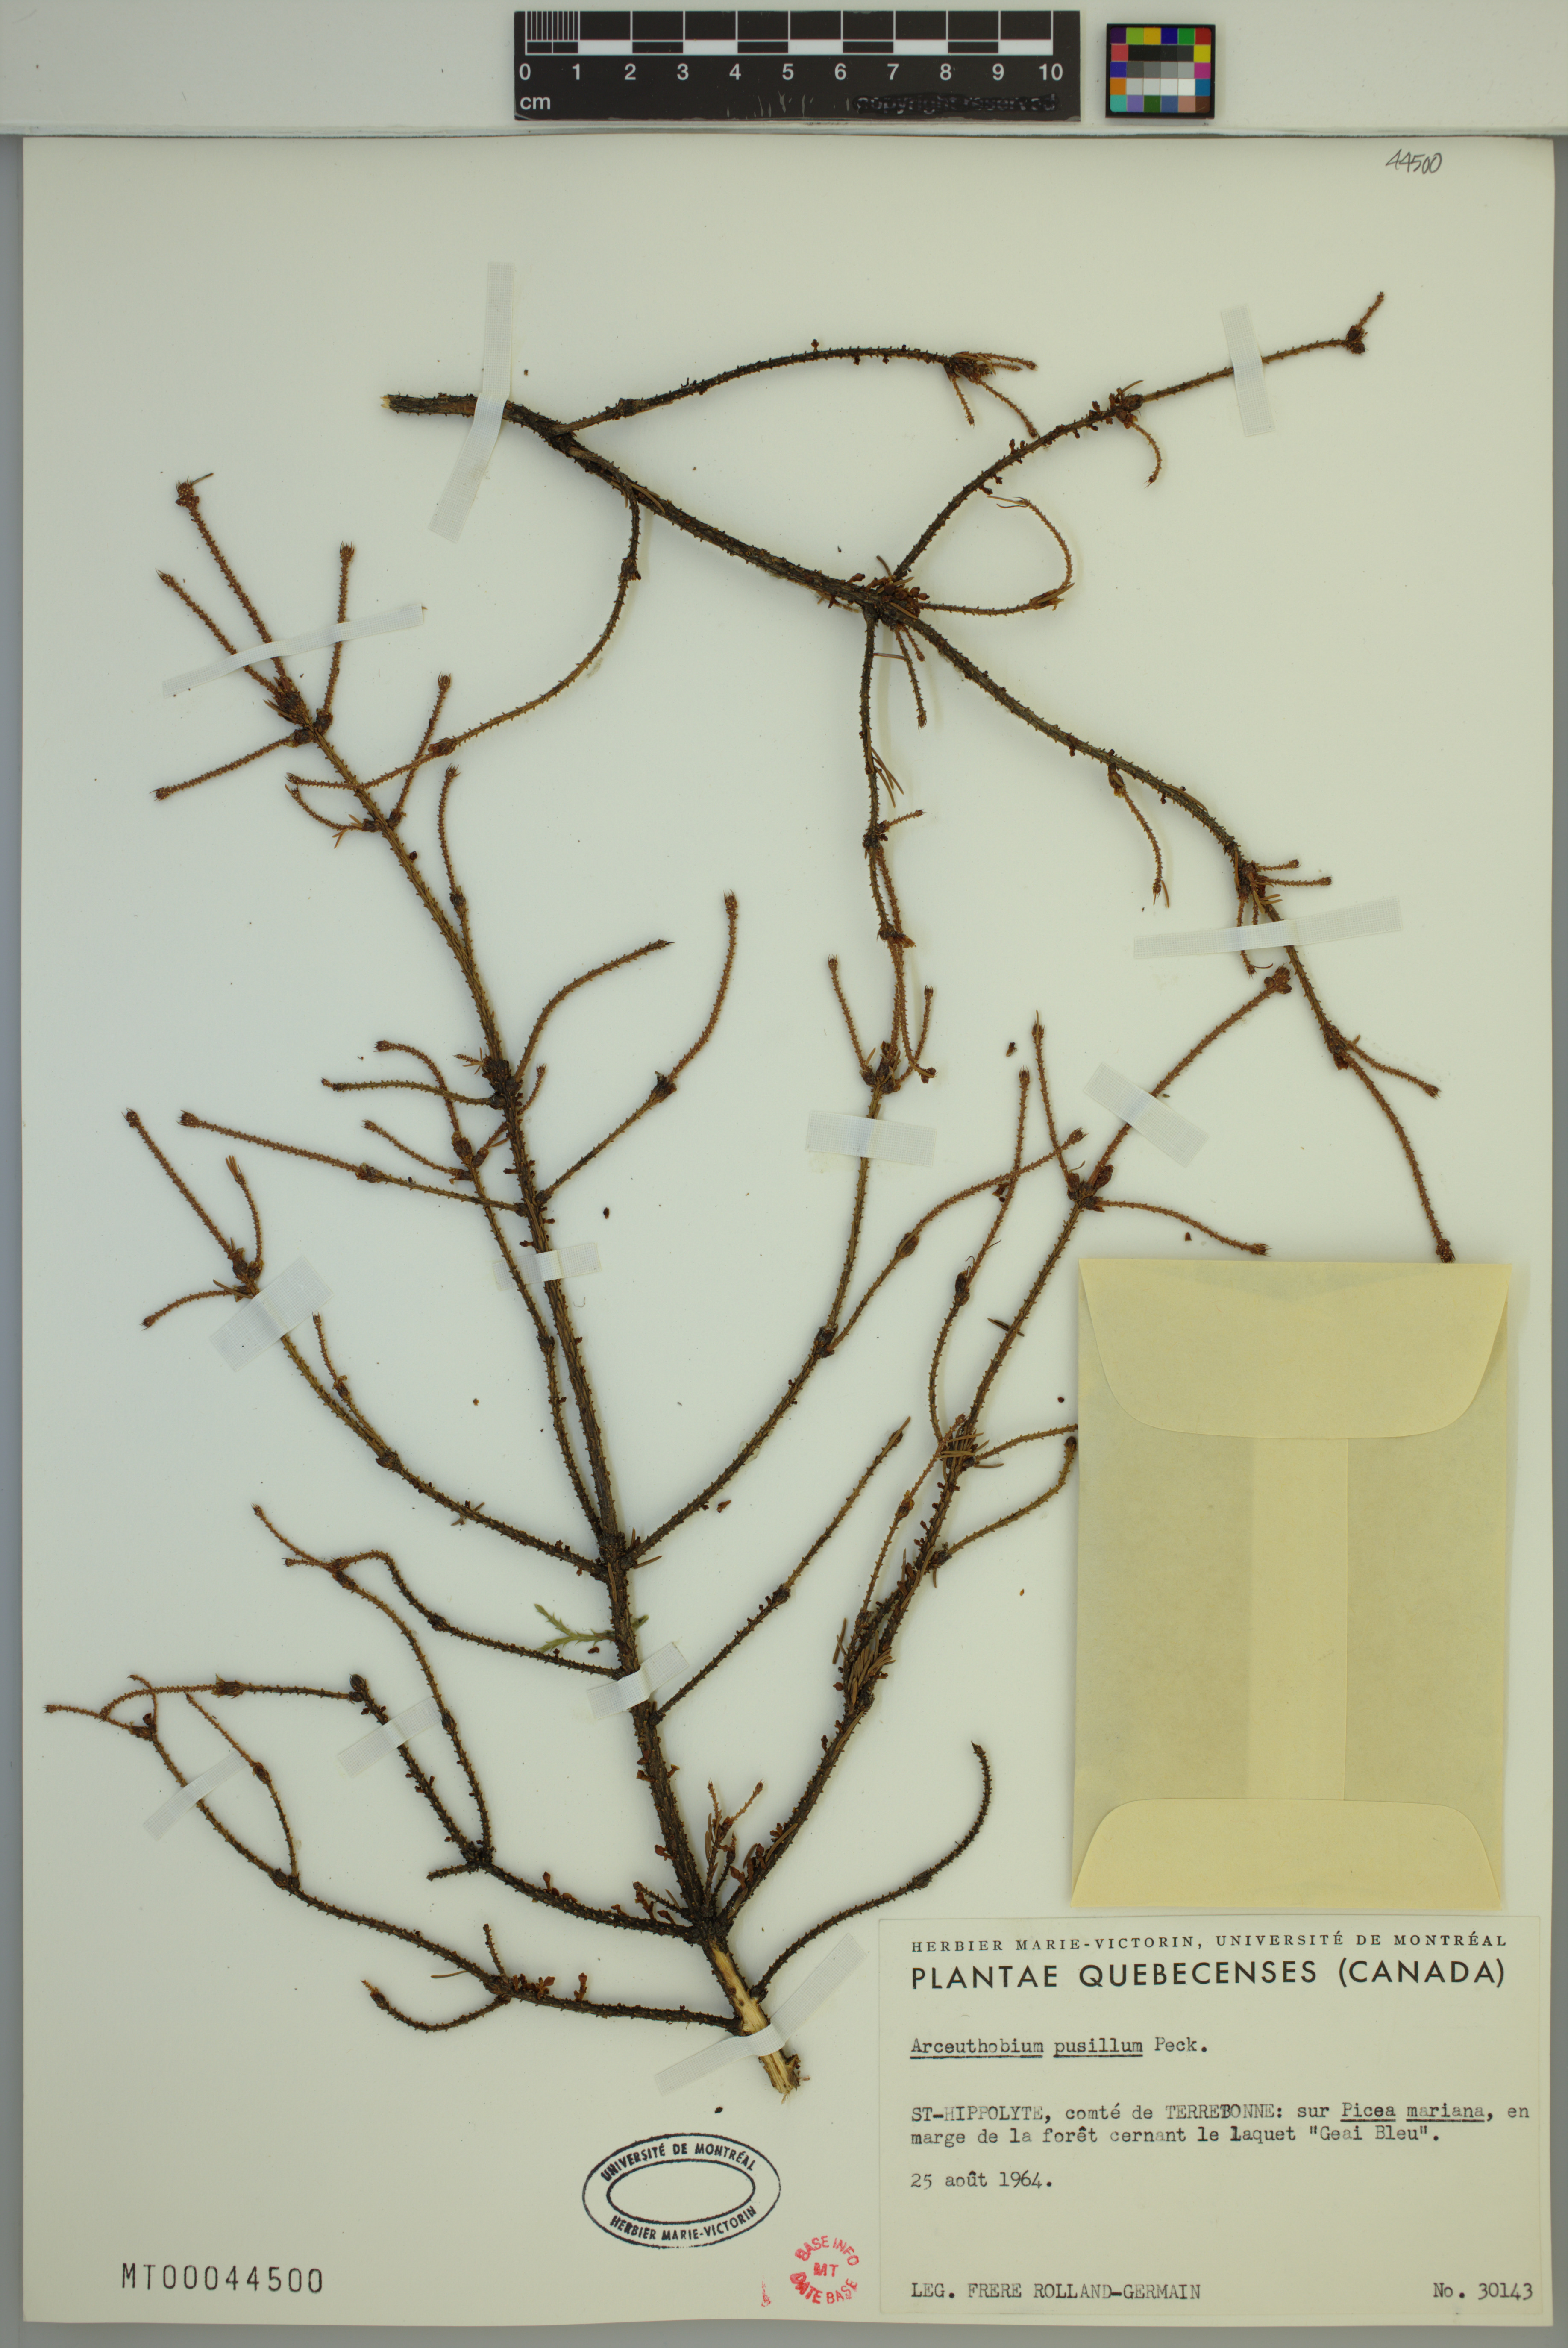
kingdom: Plantae
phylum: Tracheophyta
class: Magnoliopsida
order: Santalales
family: Viscaceae
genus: Arceuthobium
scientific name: Arceuthobium pusillum
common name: Dwarf-mistletoe
